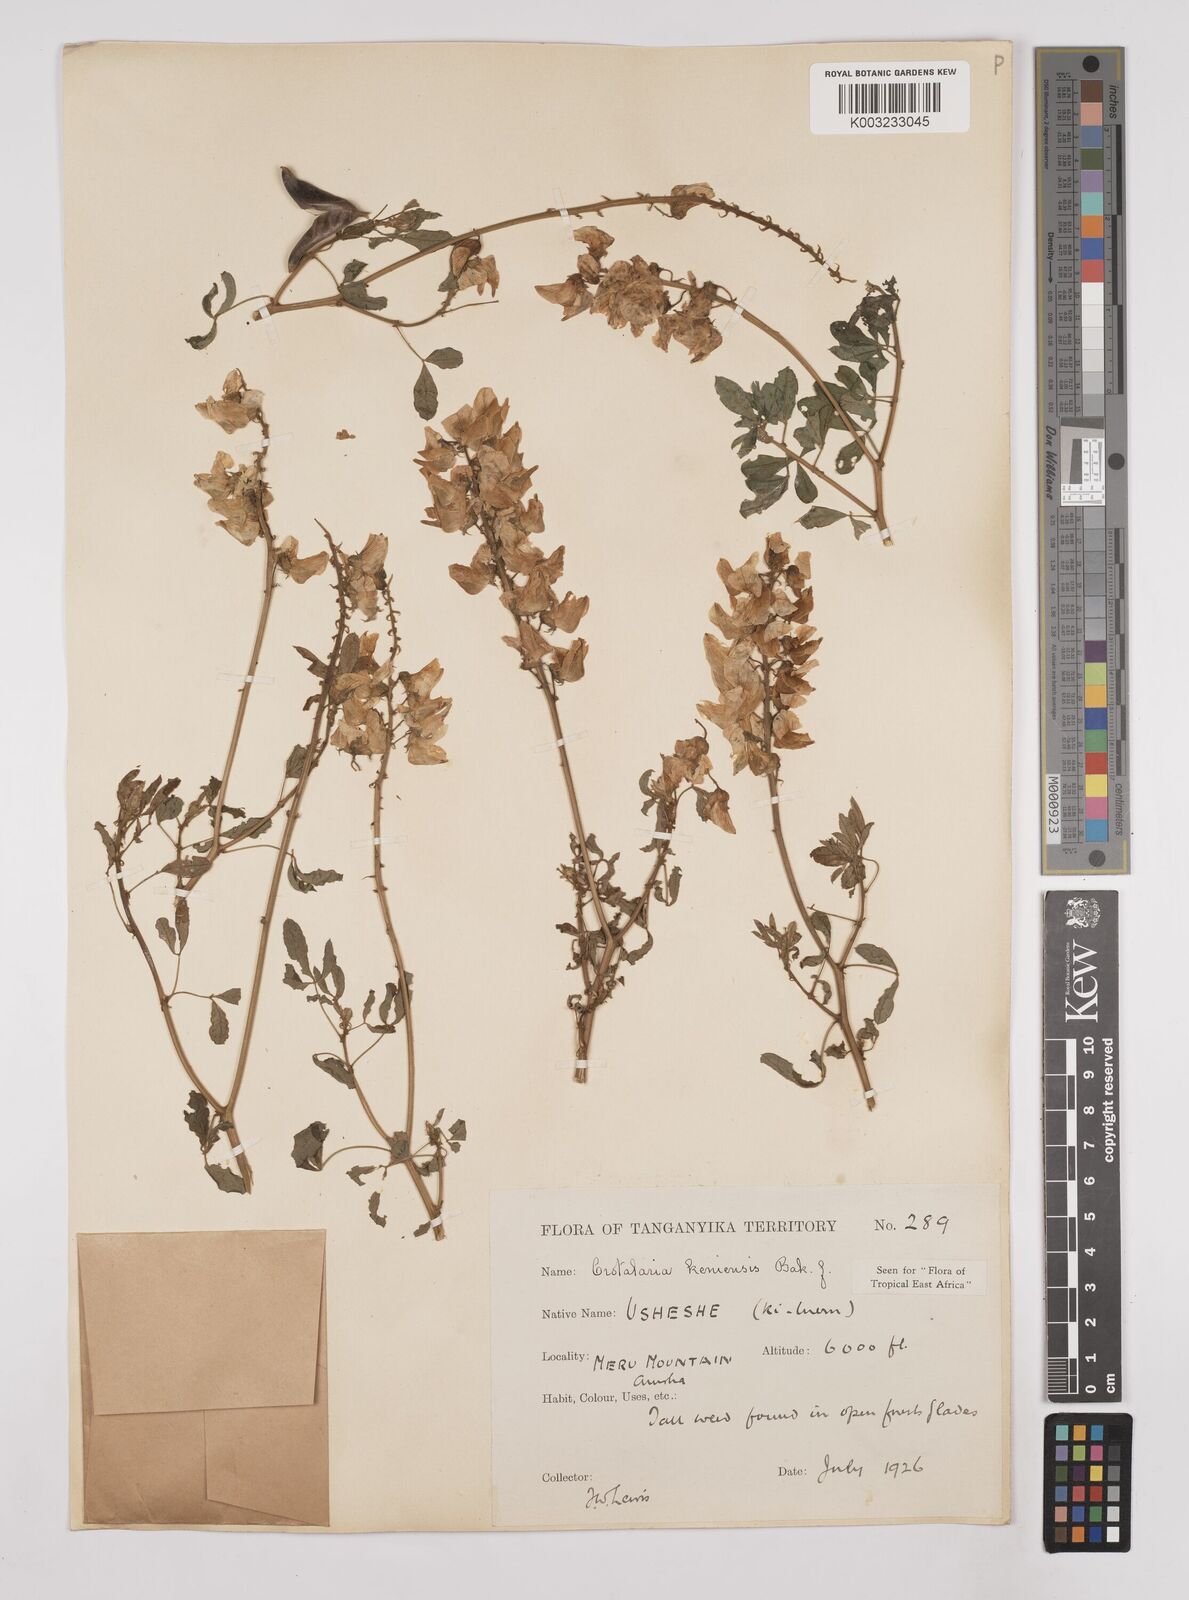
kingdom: Plantae
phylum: Tracheophyta
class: Magnoliopsida
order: Fabales
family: Fabaceae
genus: Crotalaria
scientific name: Crotalaria keniensis
